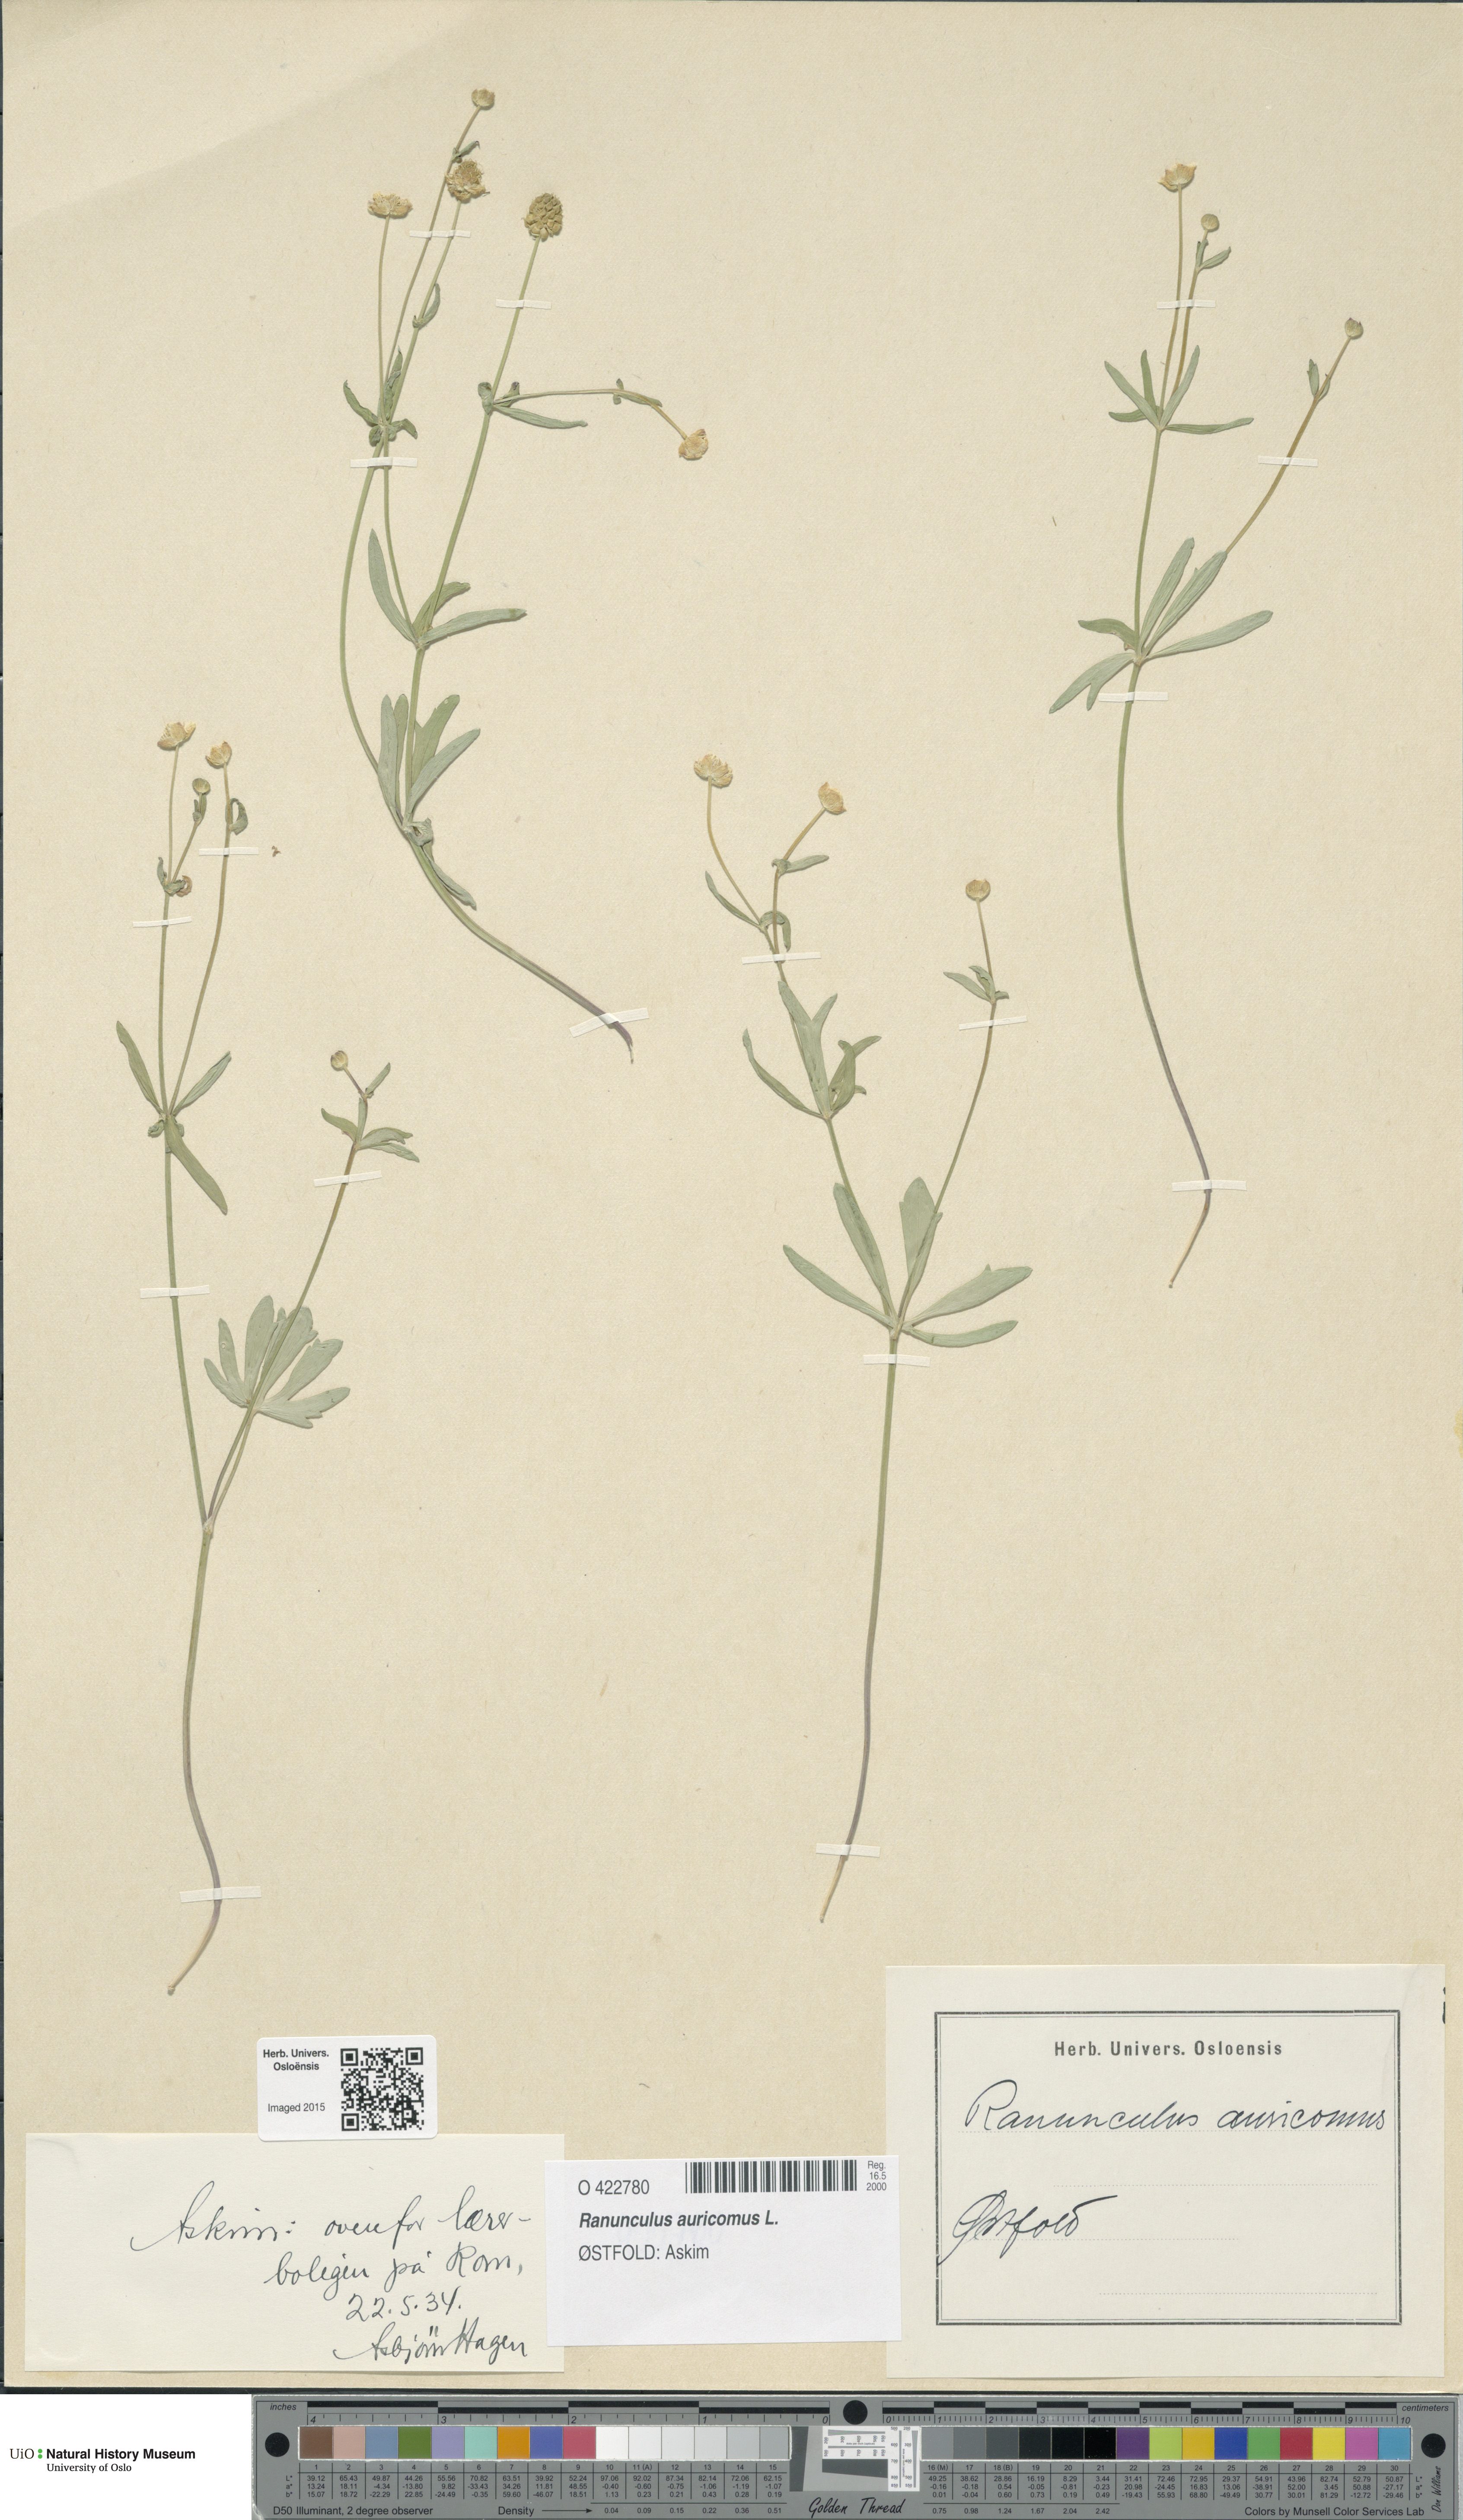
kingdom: Plantae
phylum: Tracheophyta
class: Magnoliopsida
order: Ranunculales
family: Ranunculaceae
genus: Ranunculus
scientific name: Ranunculus auricomus
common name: Goldilocks buttercup
